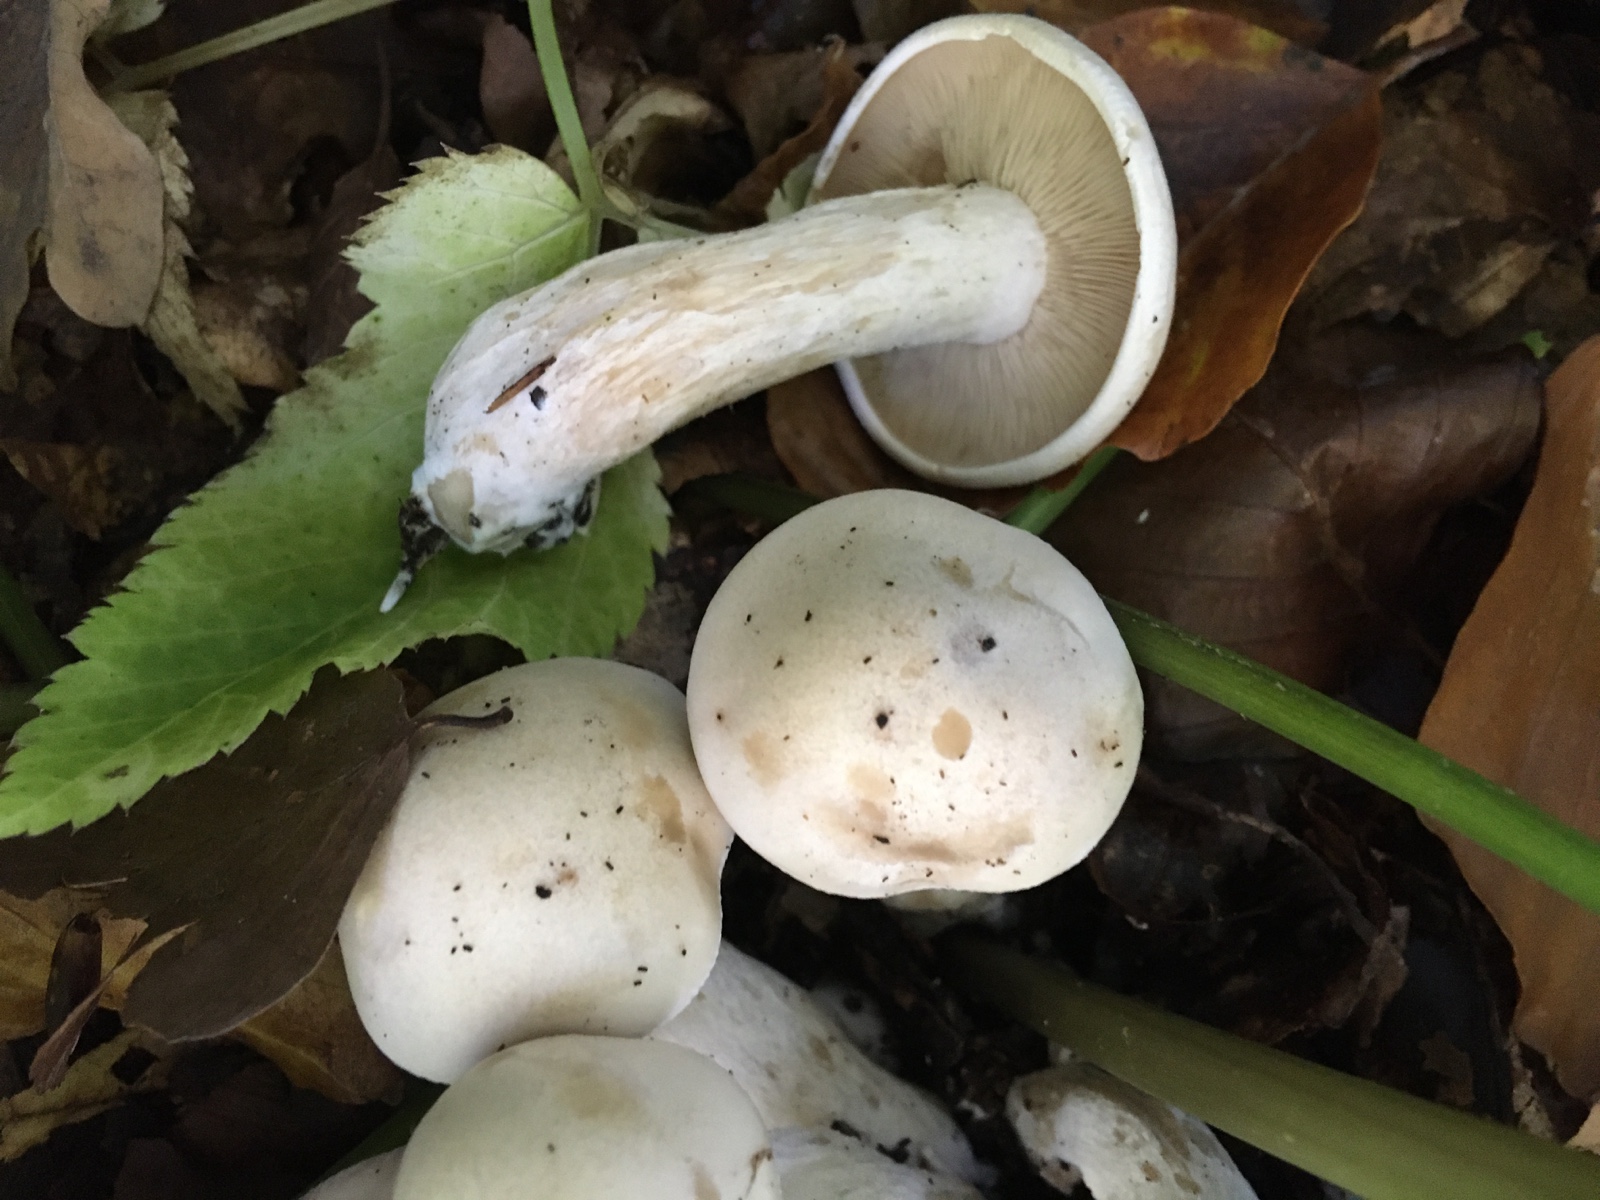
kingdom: Fungi
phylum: Basidiomycota
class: Agaricomycetes
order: Agaricales
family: Tricholomataceae
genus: Lepista
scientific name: Lepista irina
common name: violduftende hekseringshat
